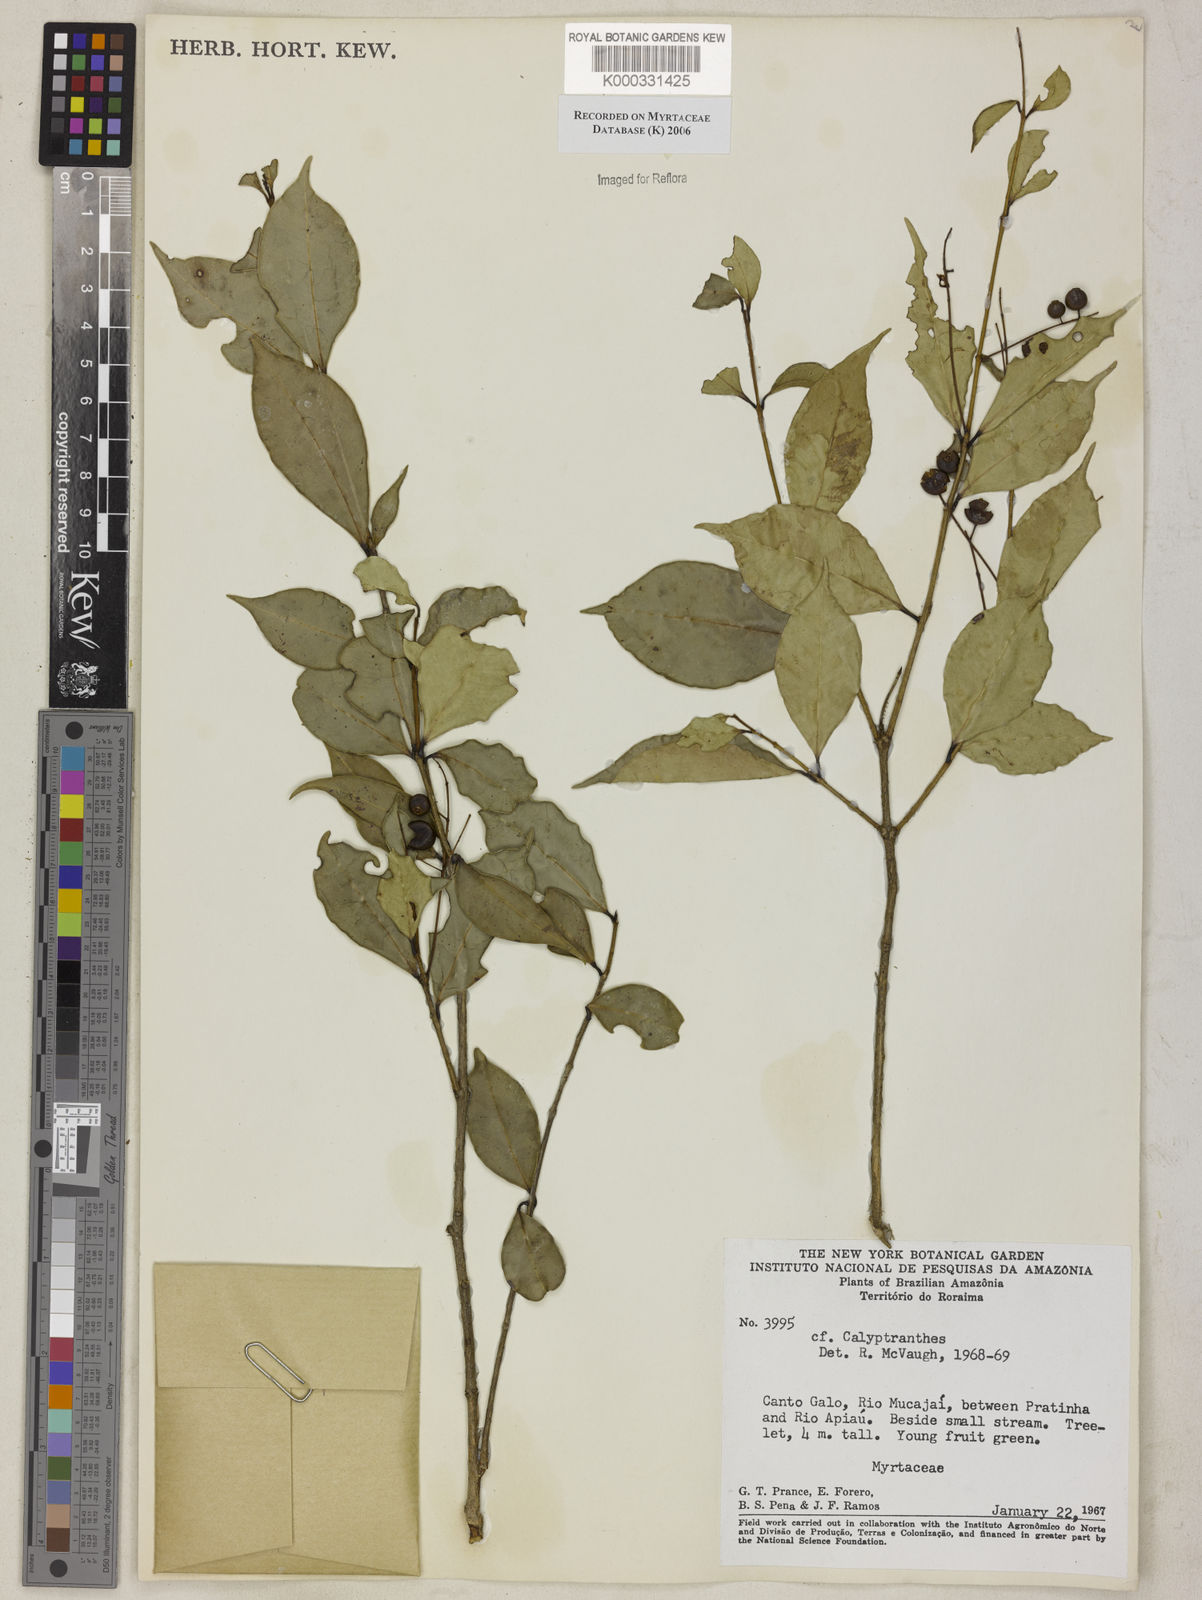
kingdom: Plantae
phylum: Tracheophyta
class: Magnoliopsida
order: Myrtales
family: Myrtaceae
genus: Calyptranthes
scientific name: Calyptranthes
